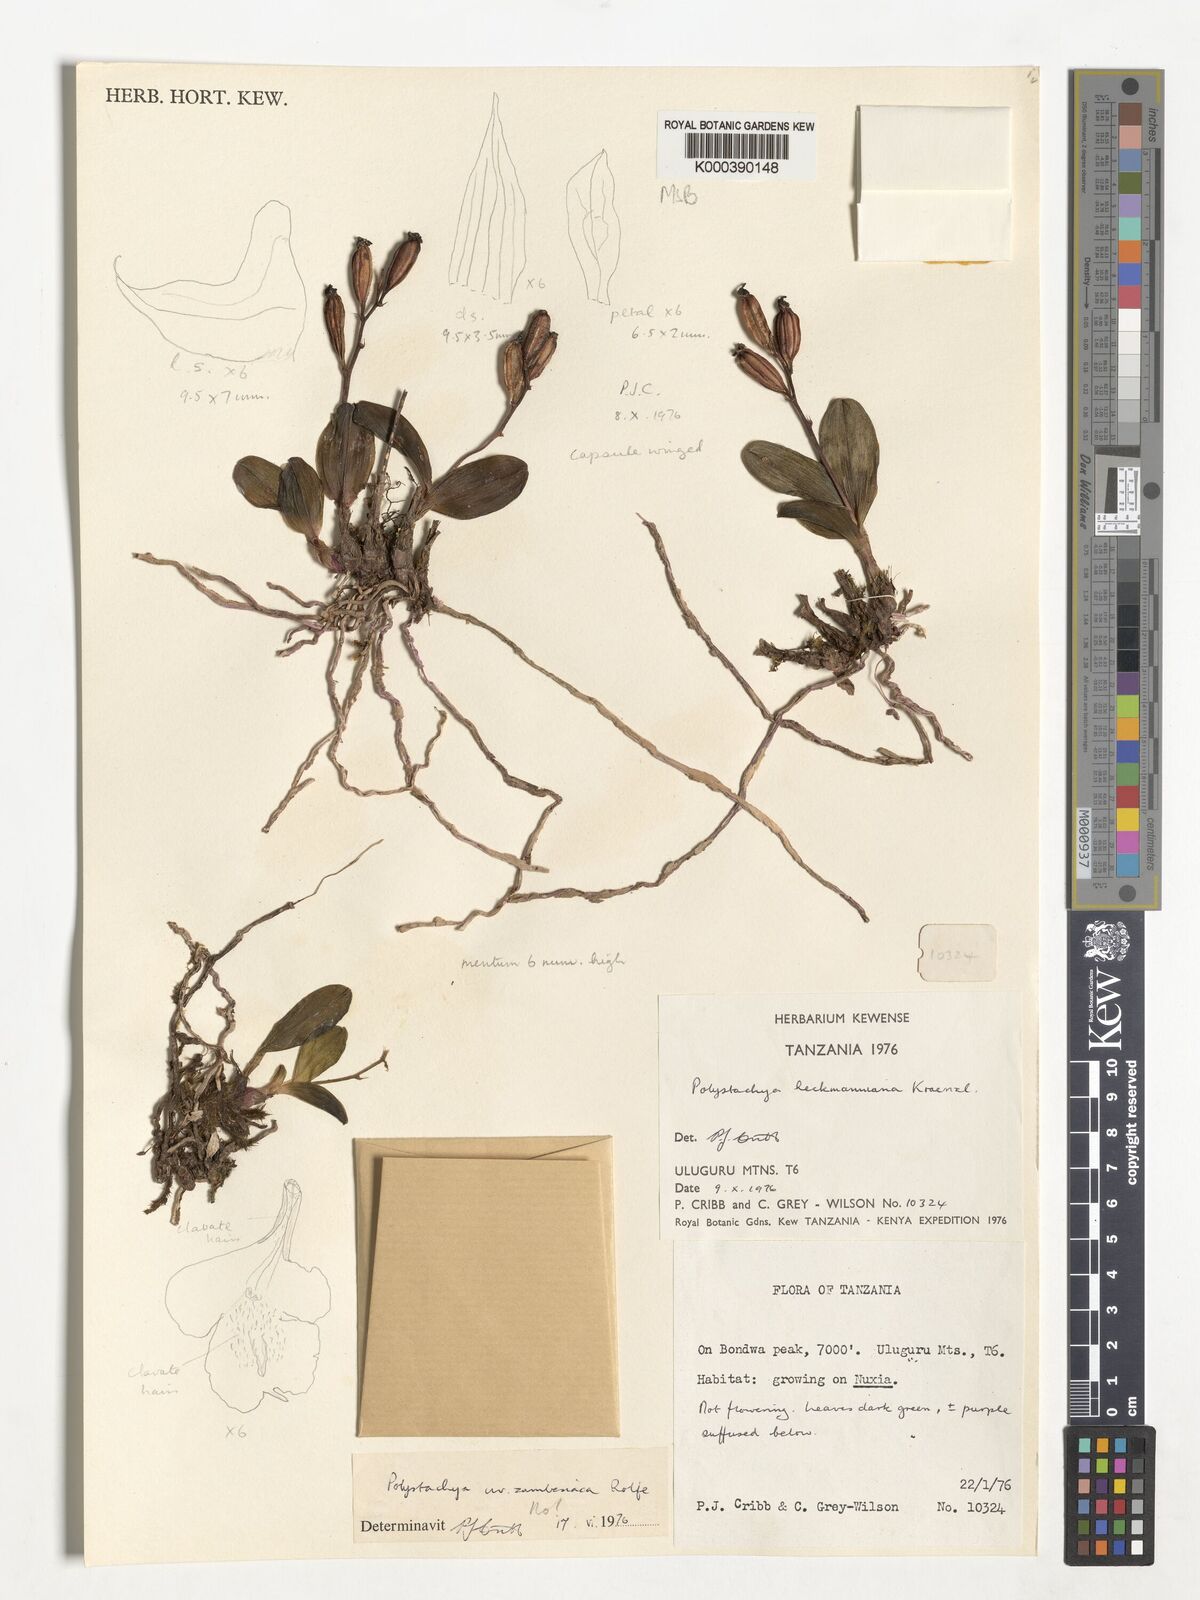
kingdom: Plantae
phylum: Tracheophyta
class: Liliopsida
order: Asparagales
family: Orchidaceae
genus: Polystachya
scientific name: Polystachya heckmanniana
